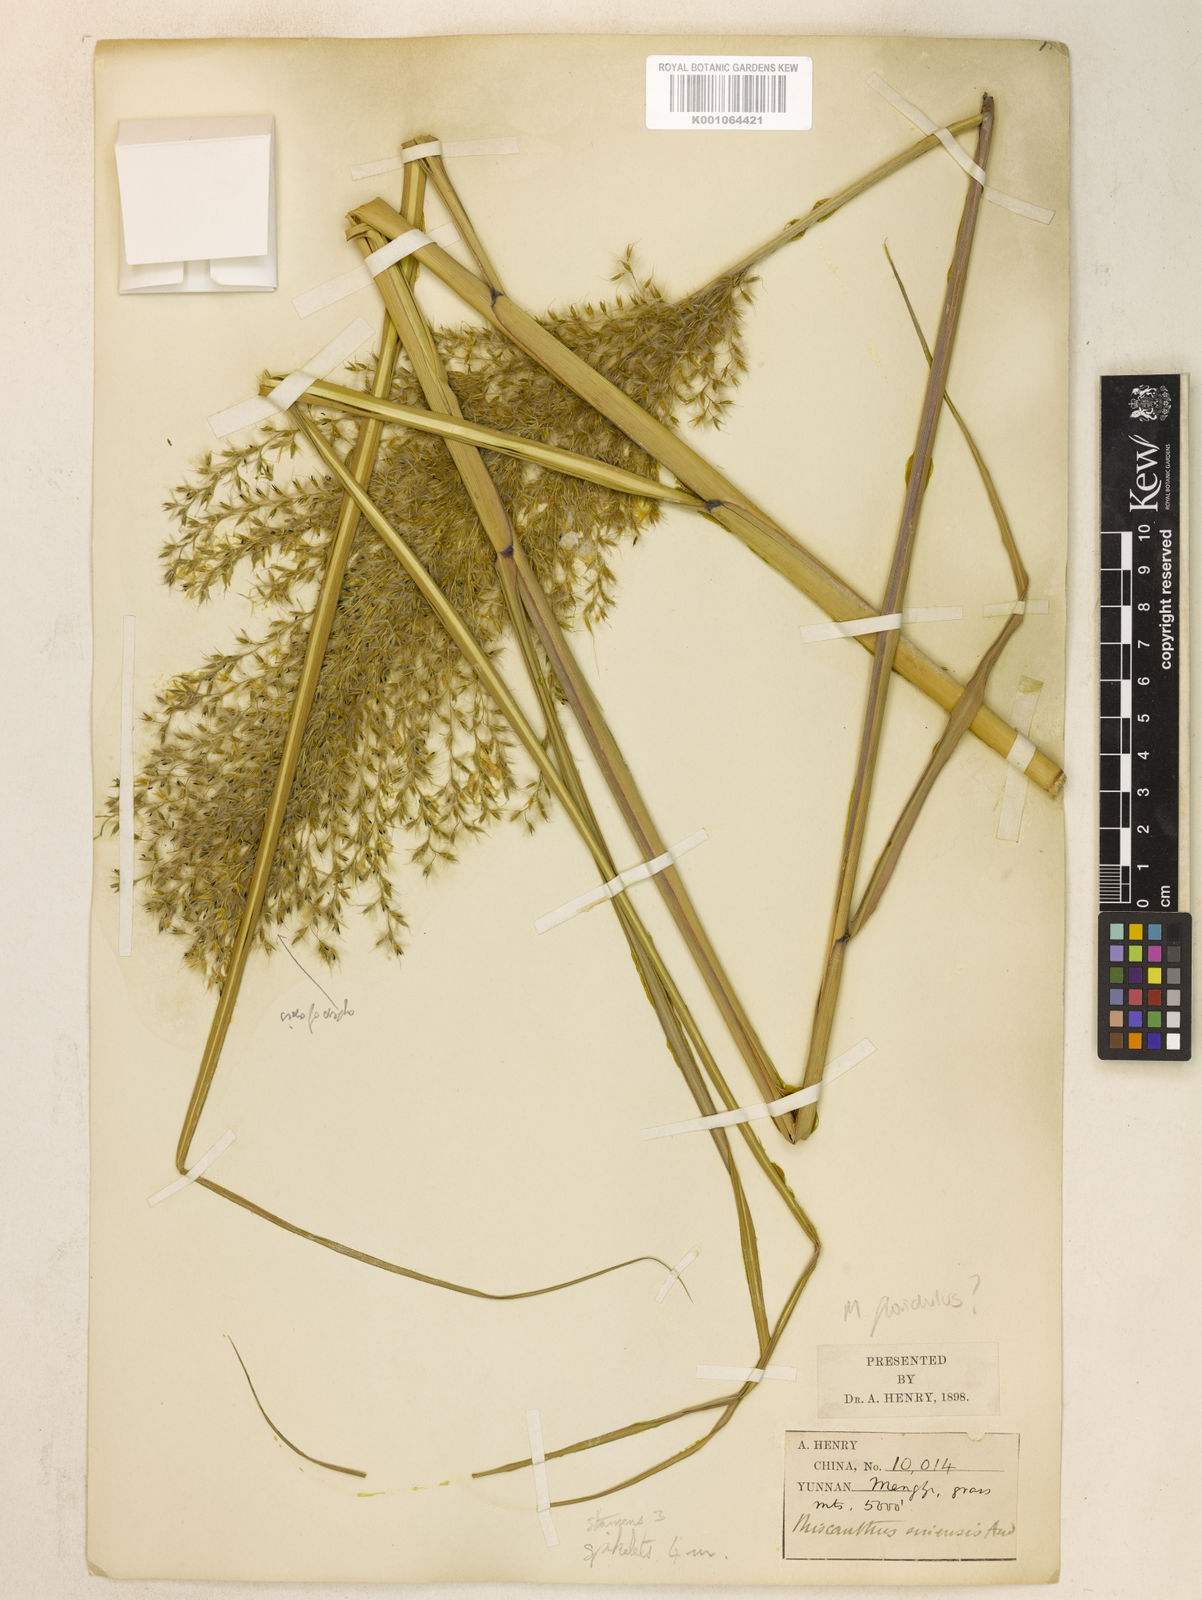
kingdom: Plantae
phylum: Tracheophyta
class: Liliopsida
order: Poales
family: Poaceae
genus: Miscanthus
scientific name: Miscanthus sinensis
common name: Chinese silvergrass
